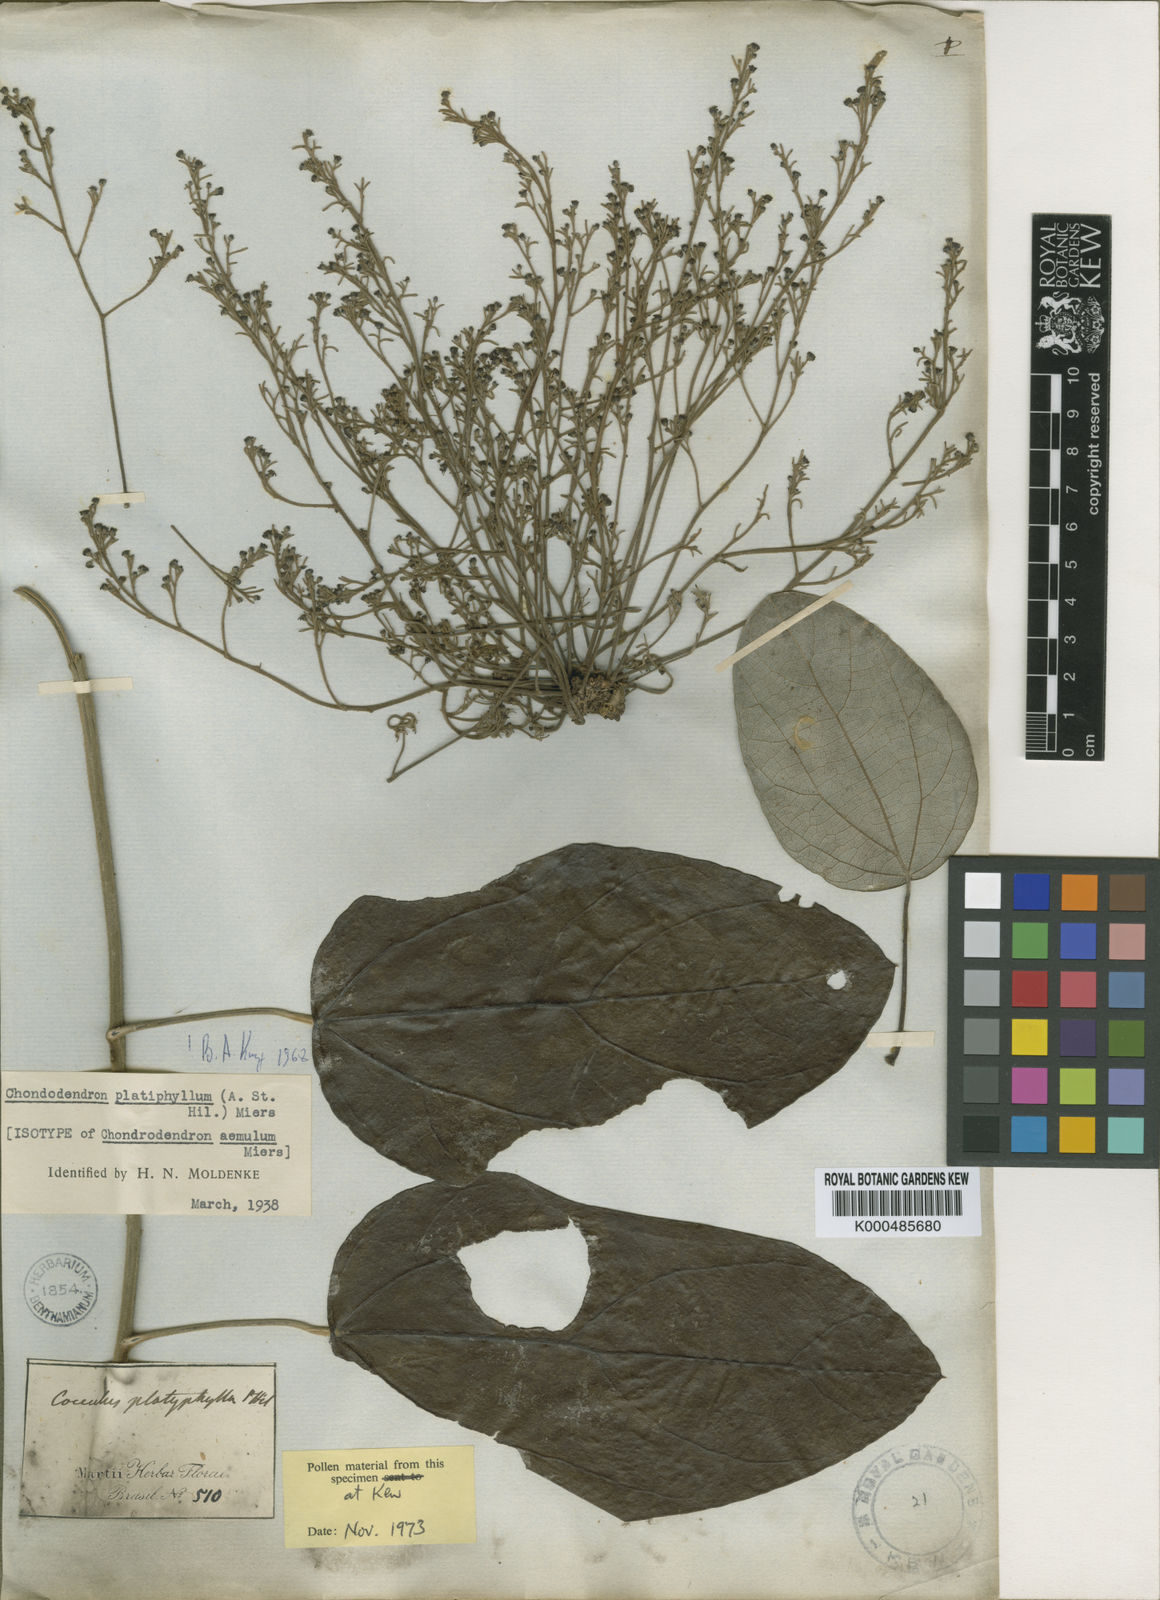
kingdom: Plantae
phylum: Tracheophyta
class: Magnoliopsida
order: Ranunculales
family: Menispermaceae
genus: Chondrodendron
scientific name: Chondrodendron platyphyllum
